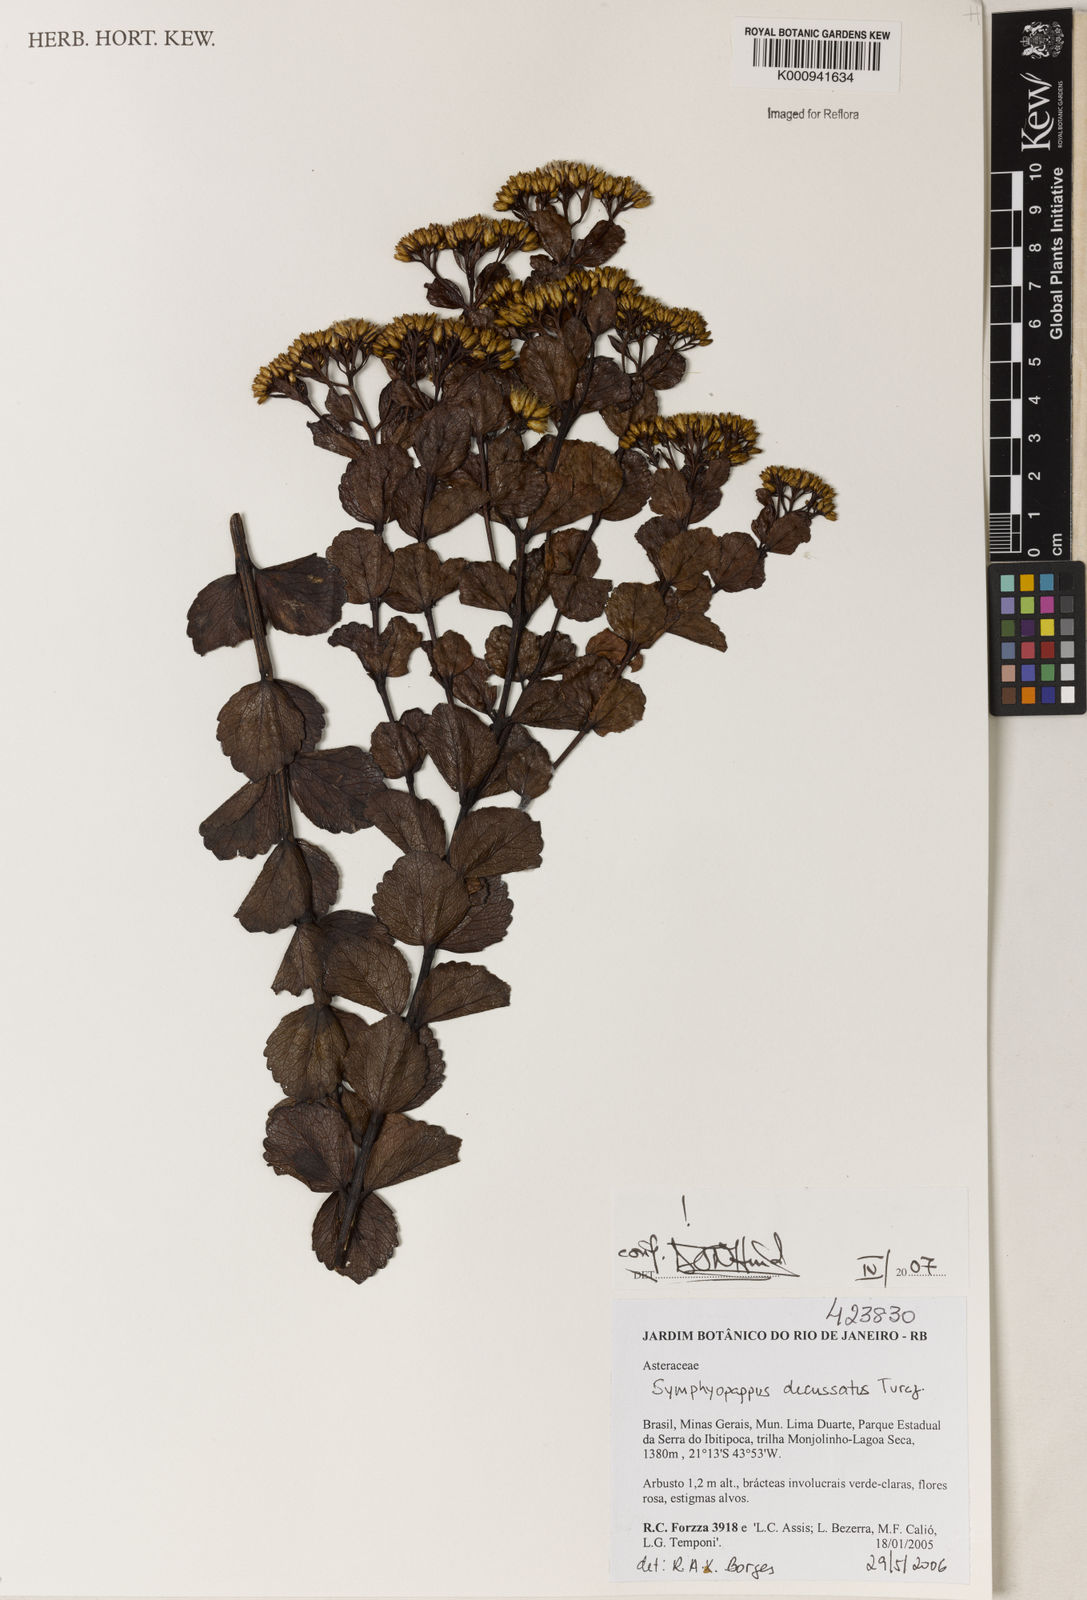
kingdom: Plantae
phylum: Tracheophyta
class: Magnoliopsida
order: Asterales
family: Asteraceae
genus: Symphyopappus
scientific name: Symphyopappus decussatus
